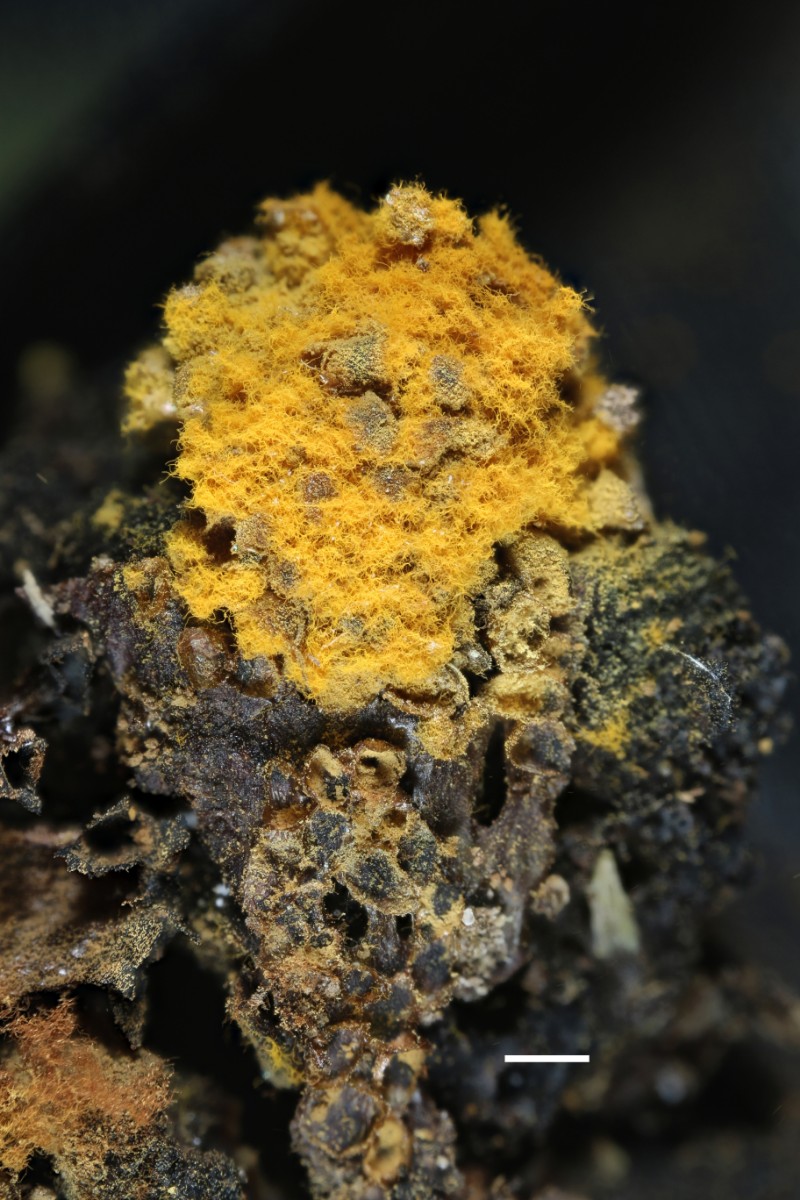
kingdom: Protozoa
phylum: Mycetozoa
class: Myxomycetes
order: Trichiales
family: Trichiaceae
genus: Trichia
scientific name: Trichia scabra
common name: tæppe-hårbold
